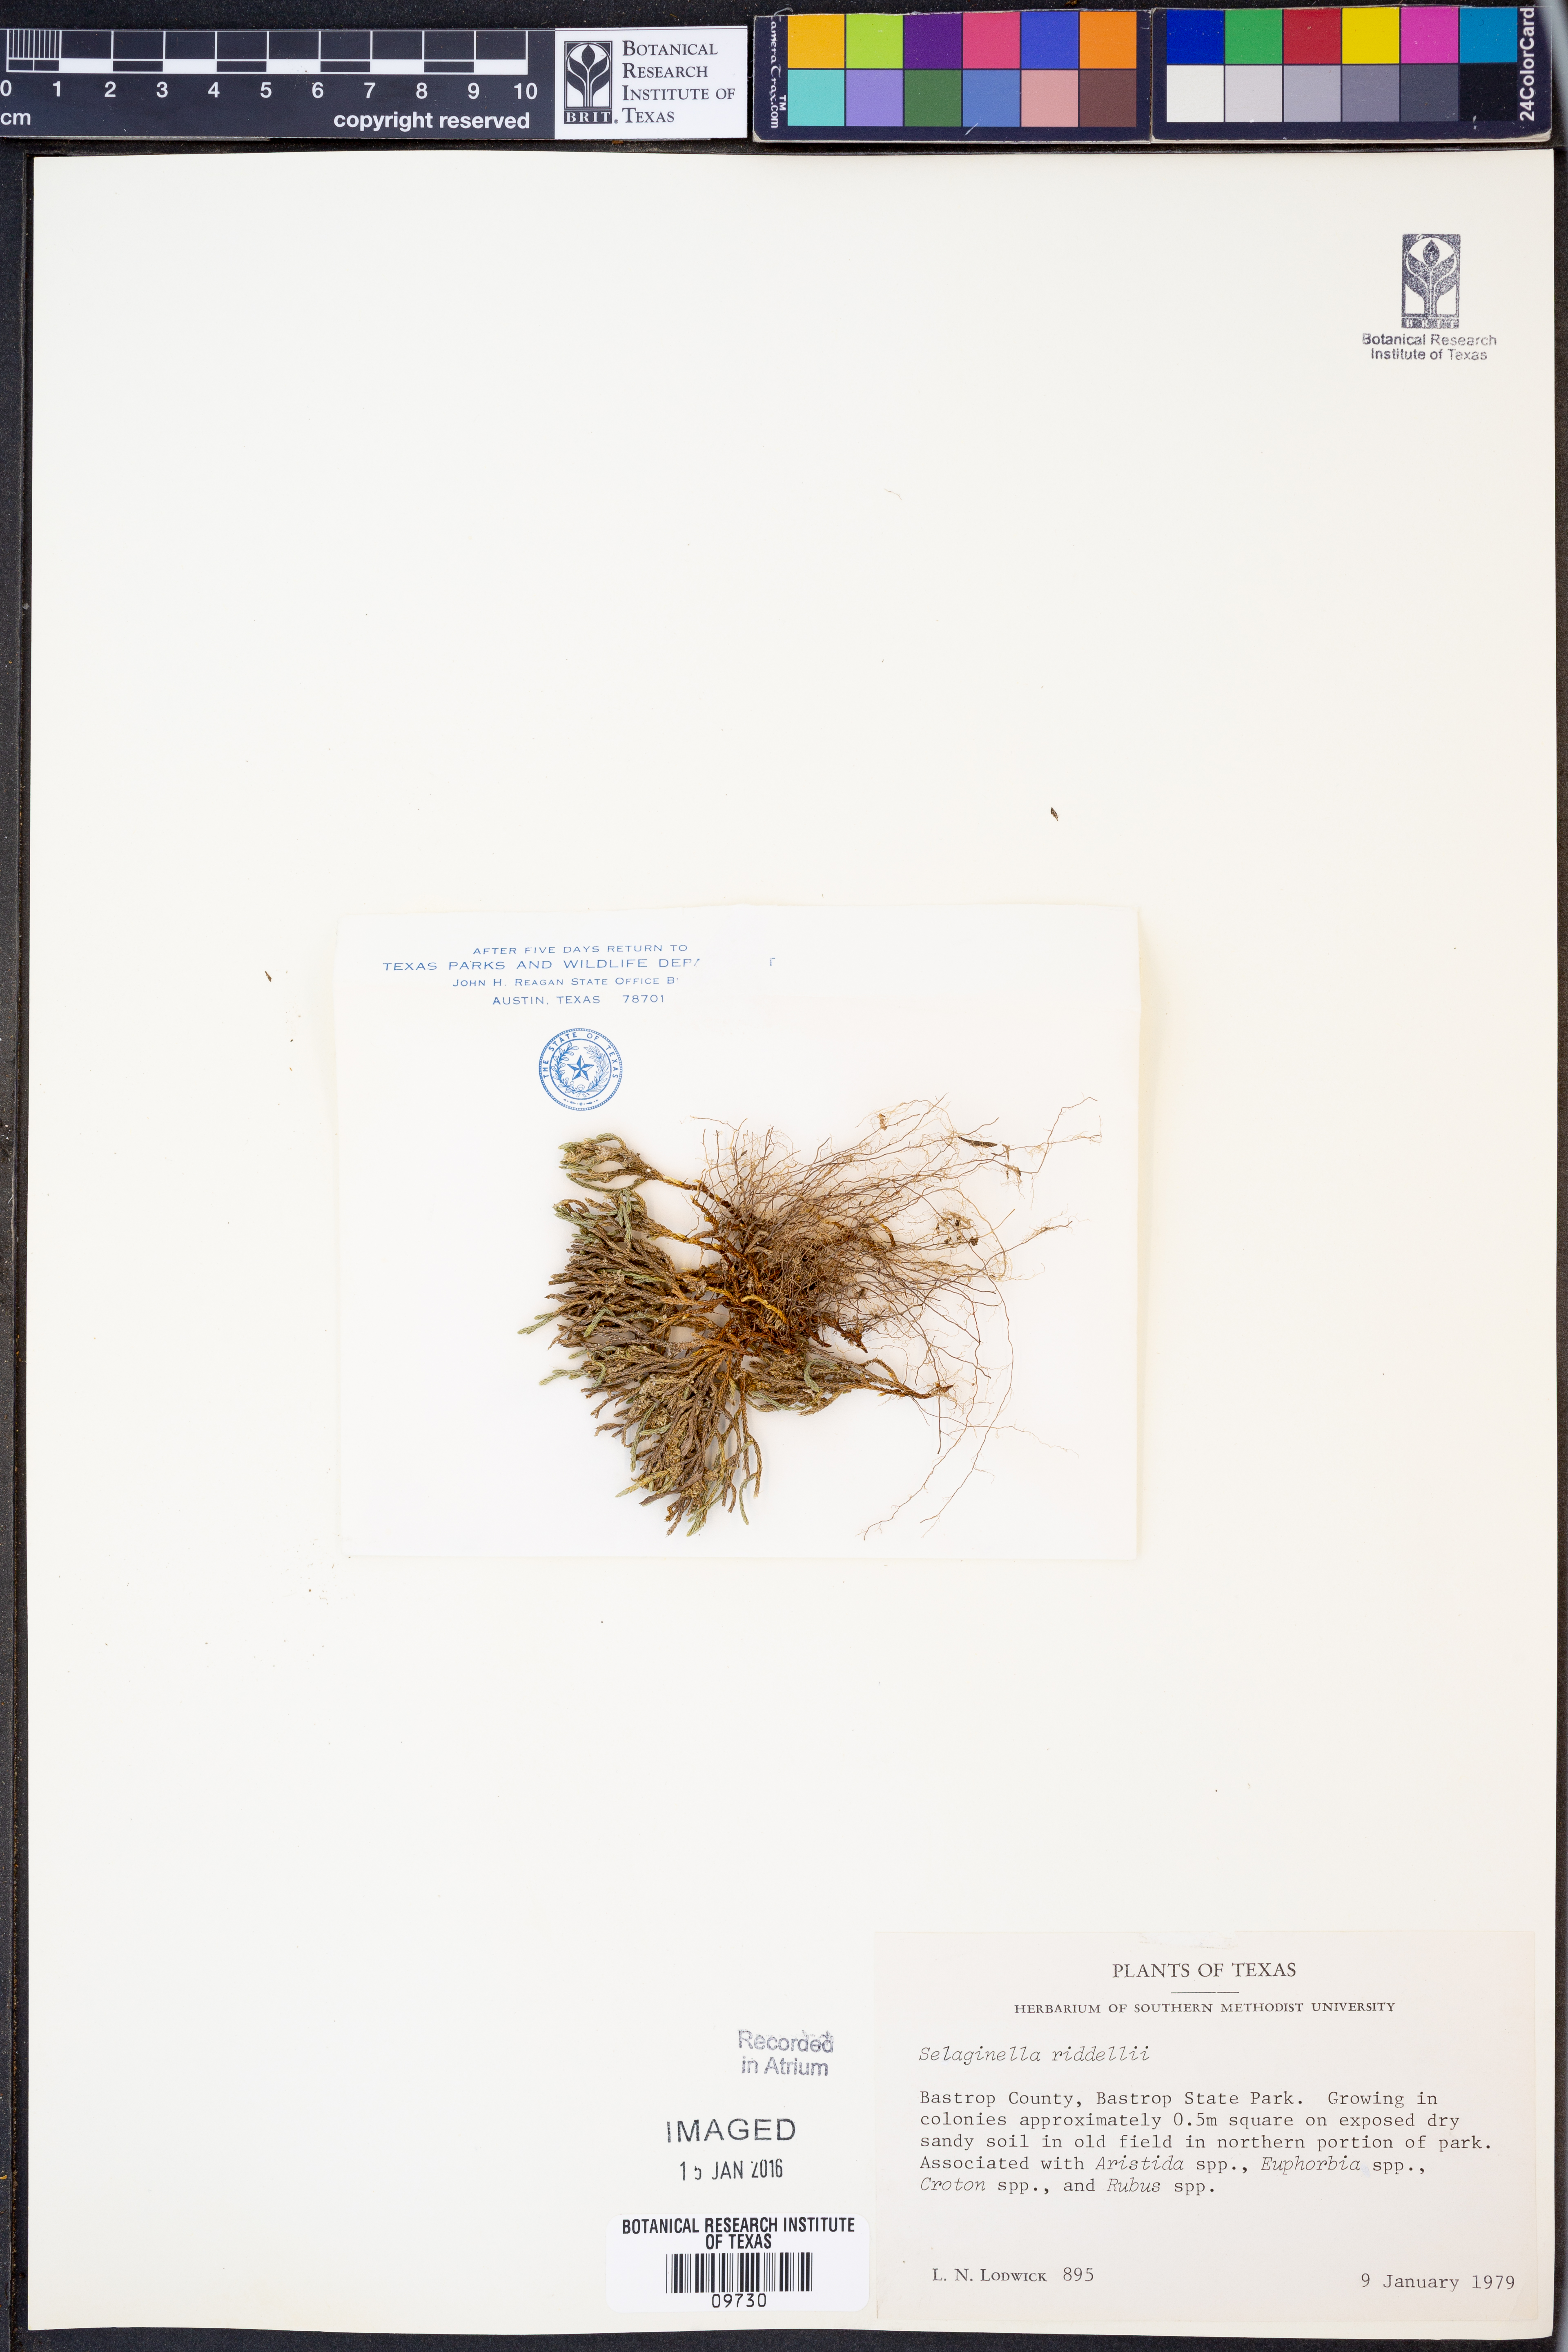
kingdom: Plantae
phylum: Tracheophyta
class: Lycopodiopsida
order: Selaginellales
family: Selaginellaceae
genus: Selaginella
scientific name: Selaginella corallina
